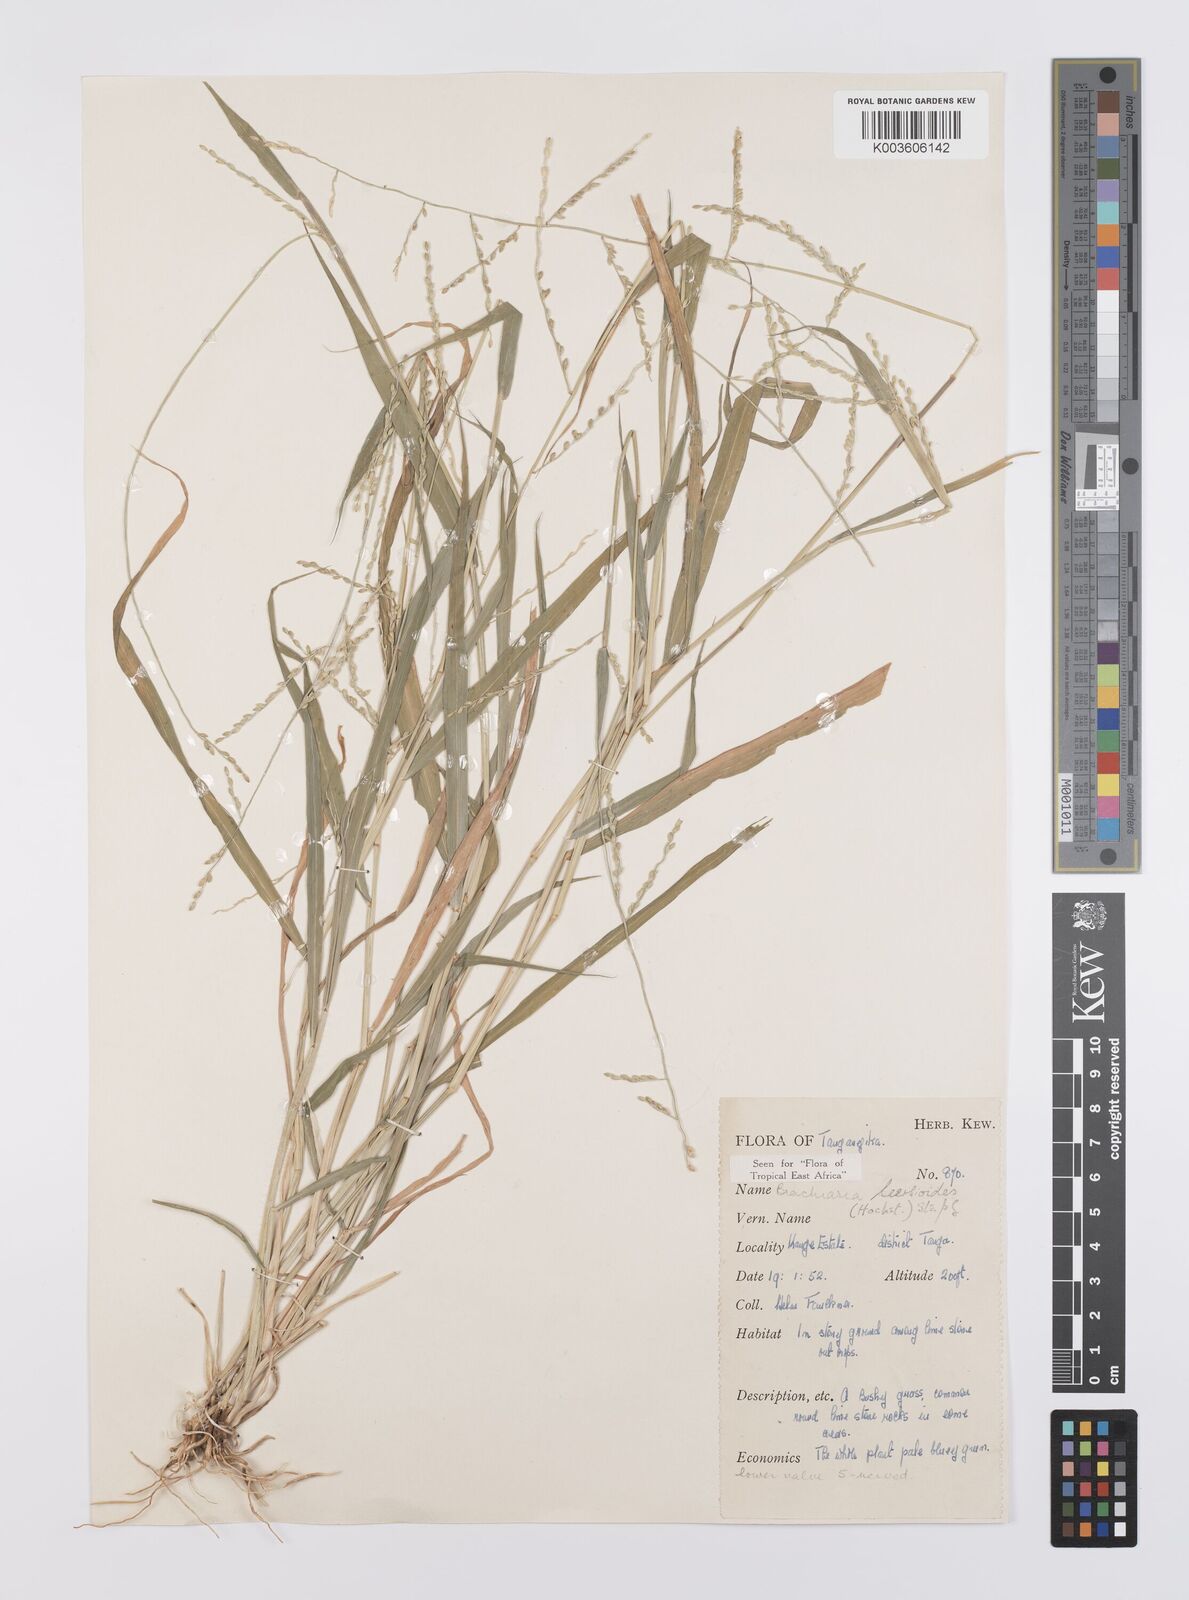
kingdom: Plantae
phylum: Tracheophyta
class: Liliopsida
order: Poales
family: Poaceae
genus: Urochloa
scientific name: Urochloa leersioides
